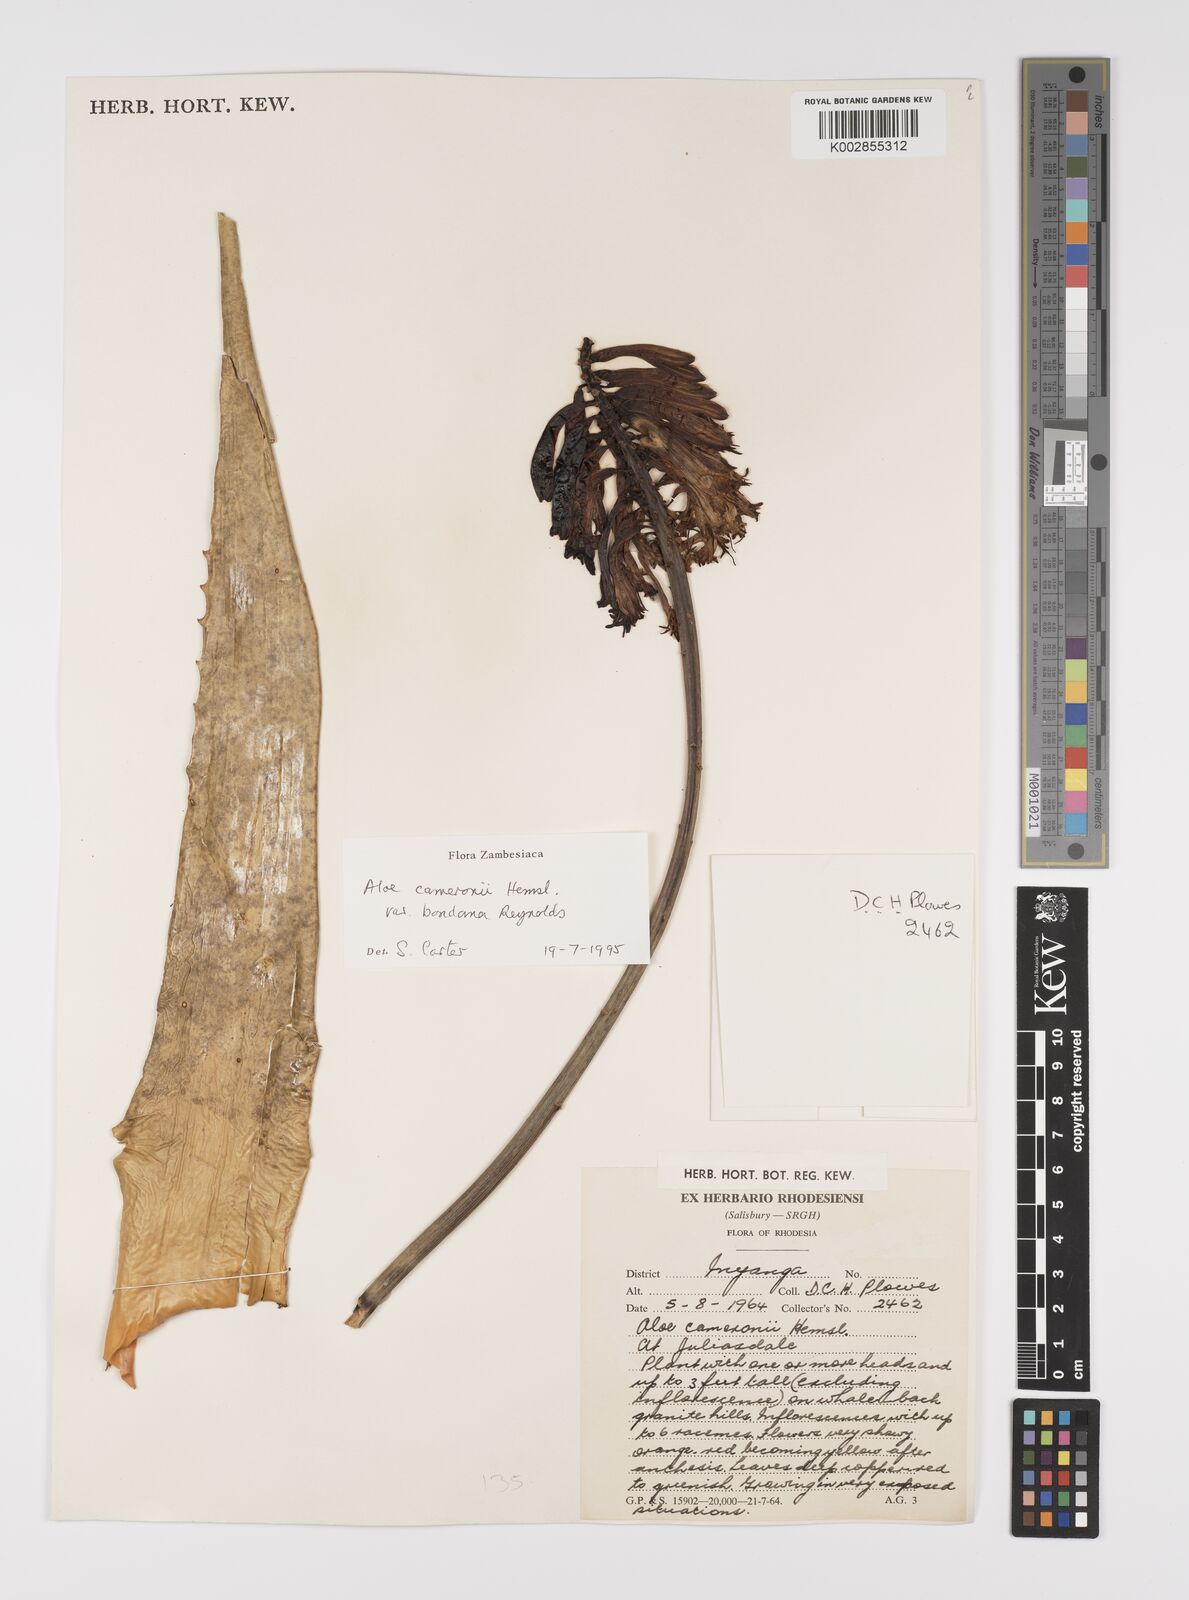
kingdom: Plantae
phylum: Tracheophyta
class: Liliopsida
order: Asparagales
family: Asphodelaceae
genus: Aloe
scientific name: Aloe cameronii
